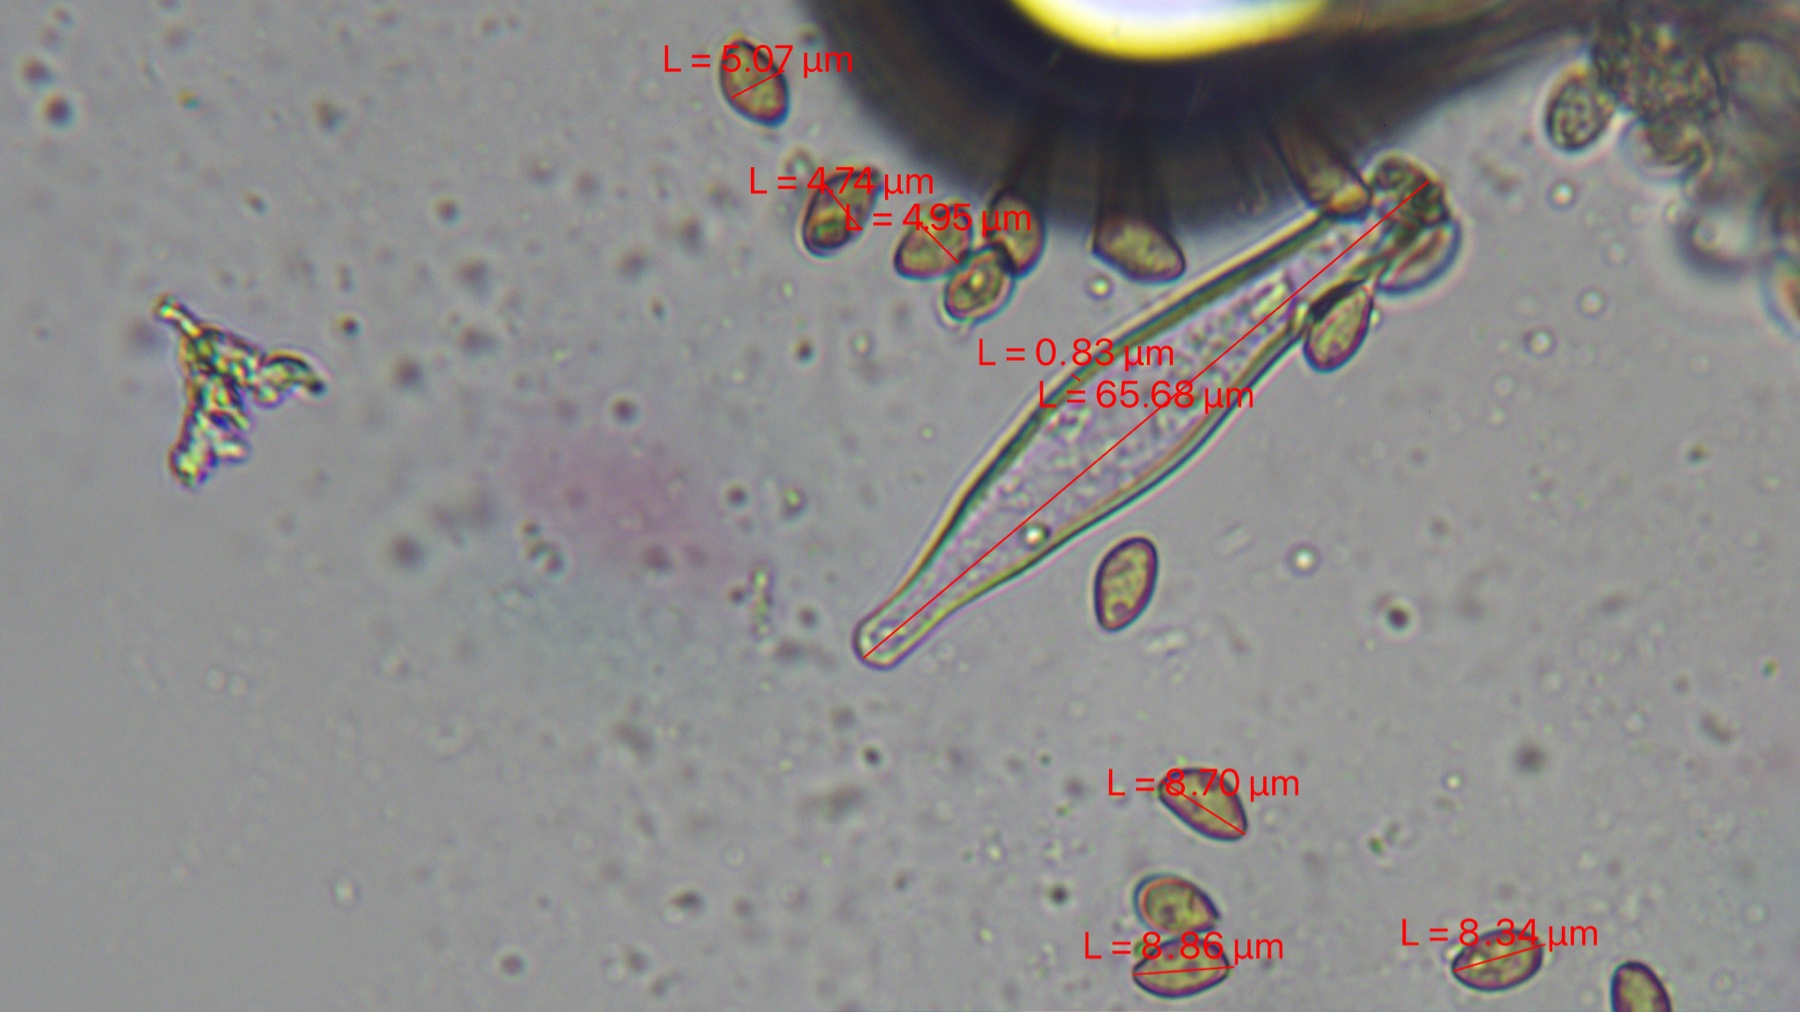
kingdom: Fungi
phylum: Basidiomycota
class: Agaricomycetes
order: Agaricales
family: Inocybaceae
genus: Inocybe
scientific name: Inocybe squarrosa
